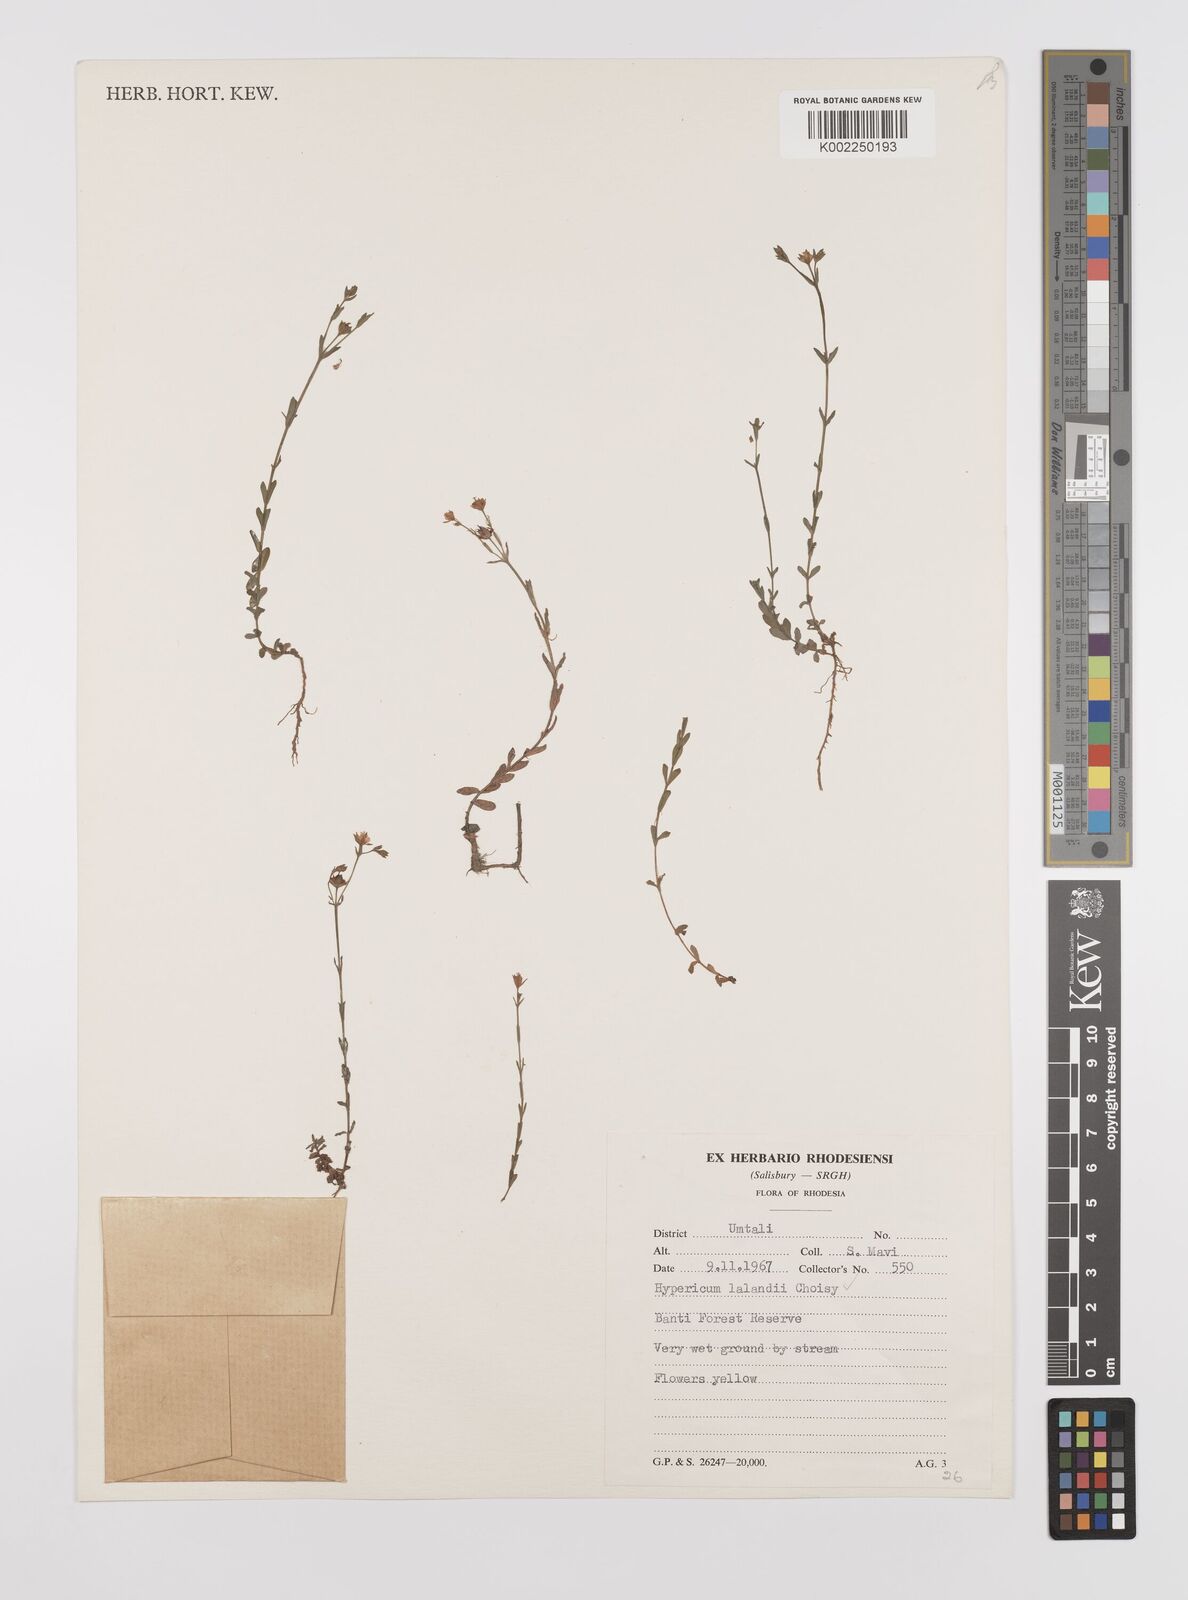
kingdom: Plantae
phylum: Tracheophyta
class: Magnoliopsida
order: Malpighiales
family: Hypericaceae
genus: Hypericum
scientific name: Hypericum lalandii
